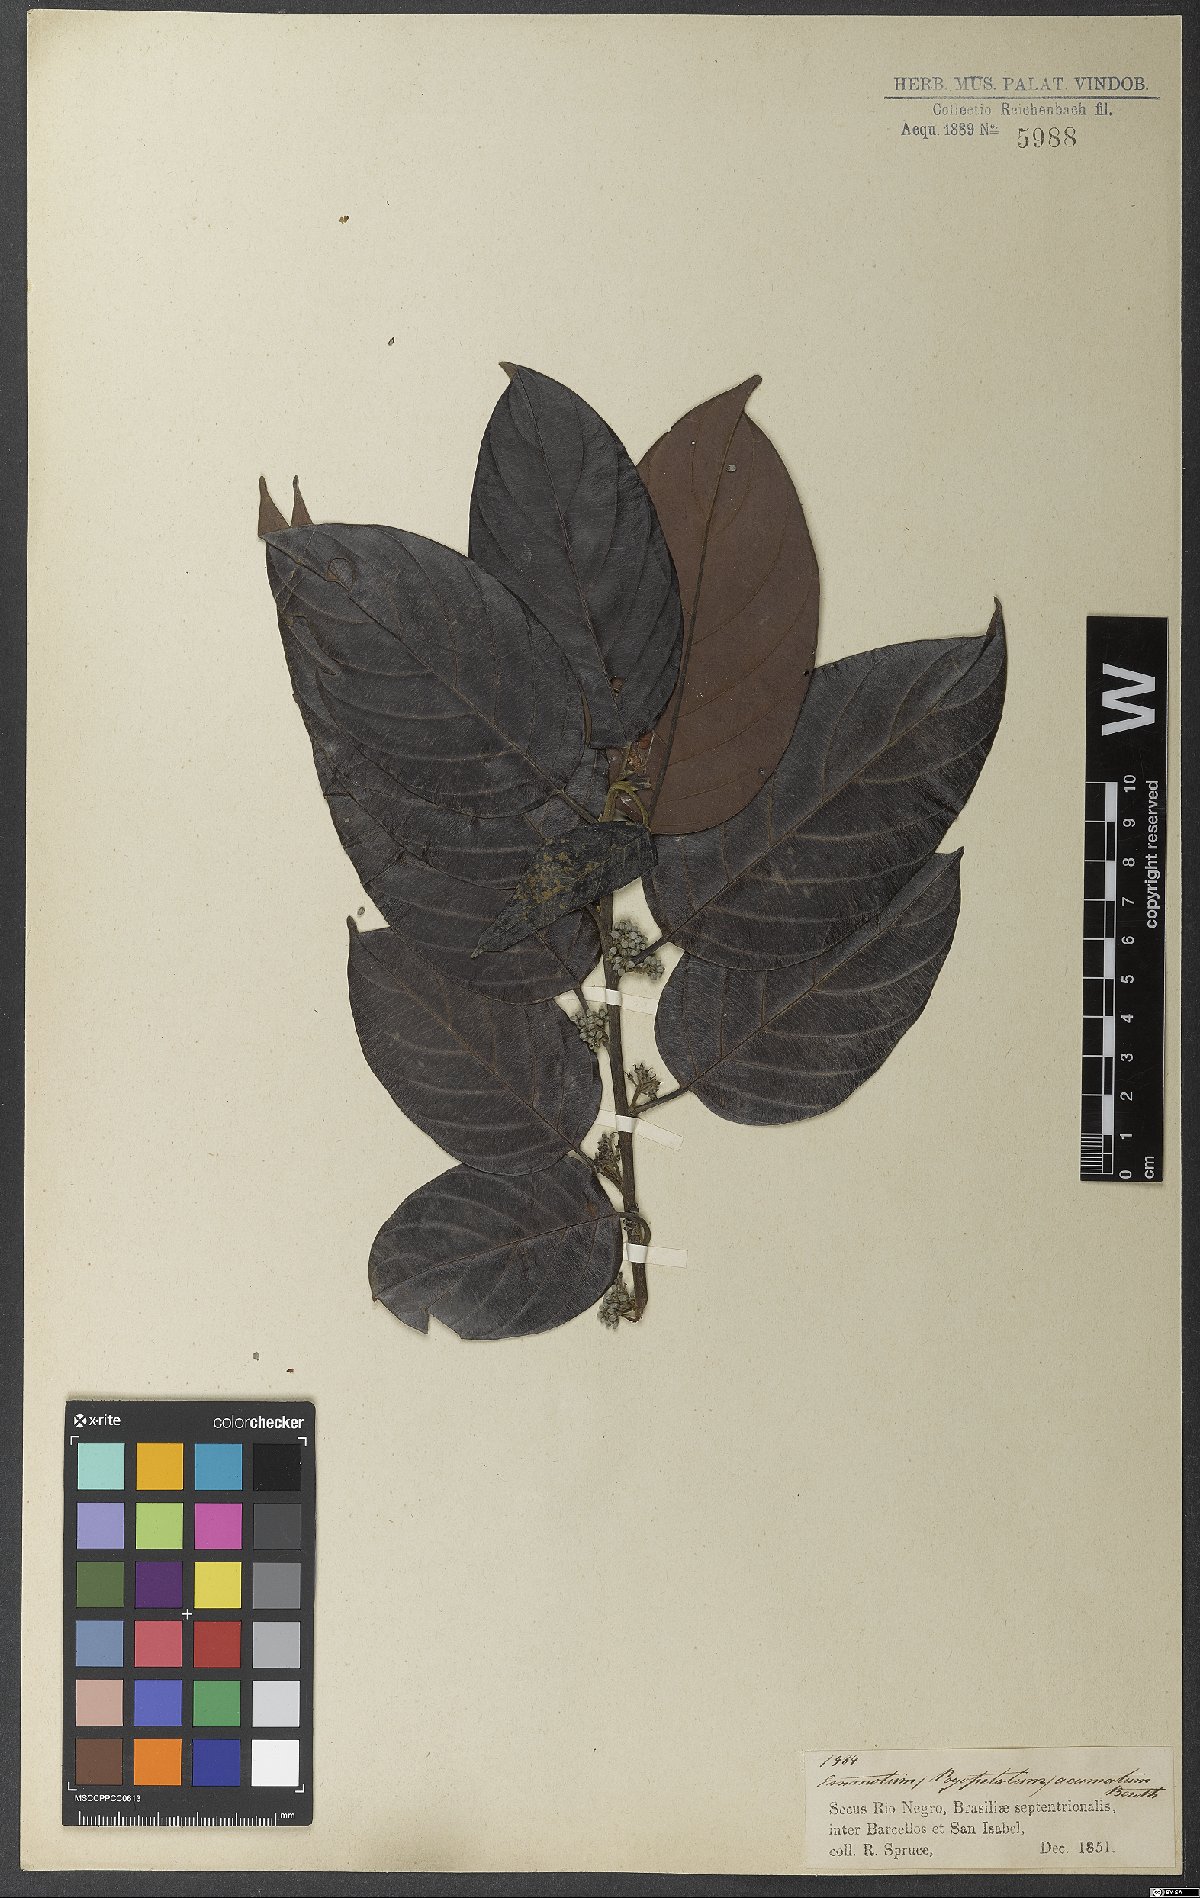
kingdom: Plantae
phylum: Tracheophyta
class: Magnoliopsida
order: Metteniusales
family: Metteniusaceae
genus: Emmotum
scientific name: Emmotum acuminatum
